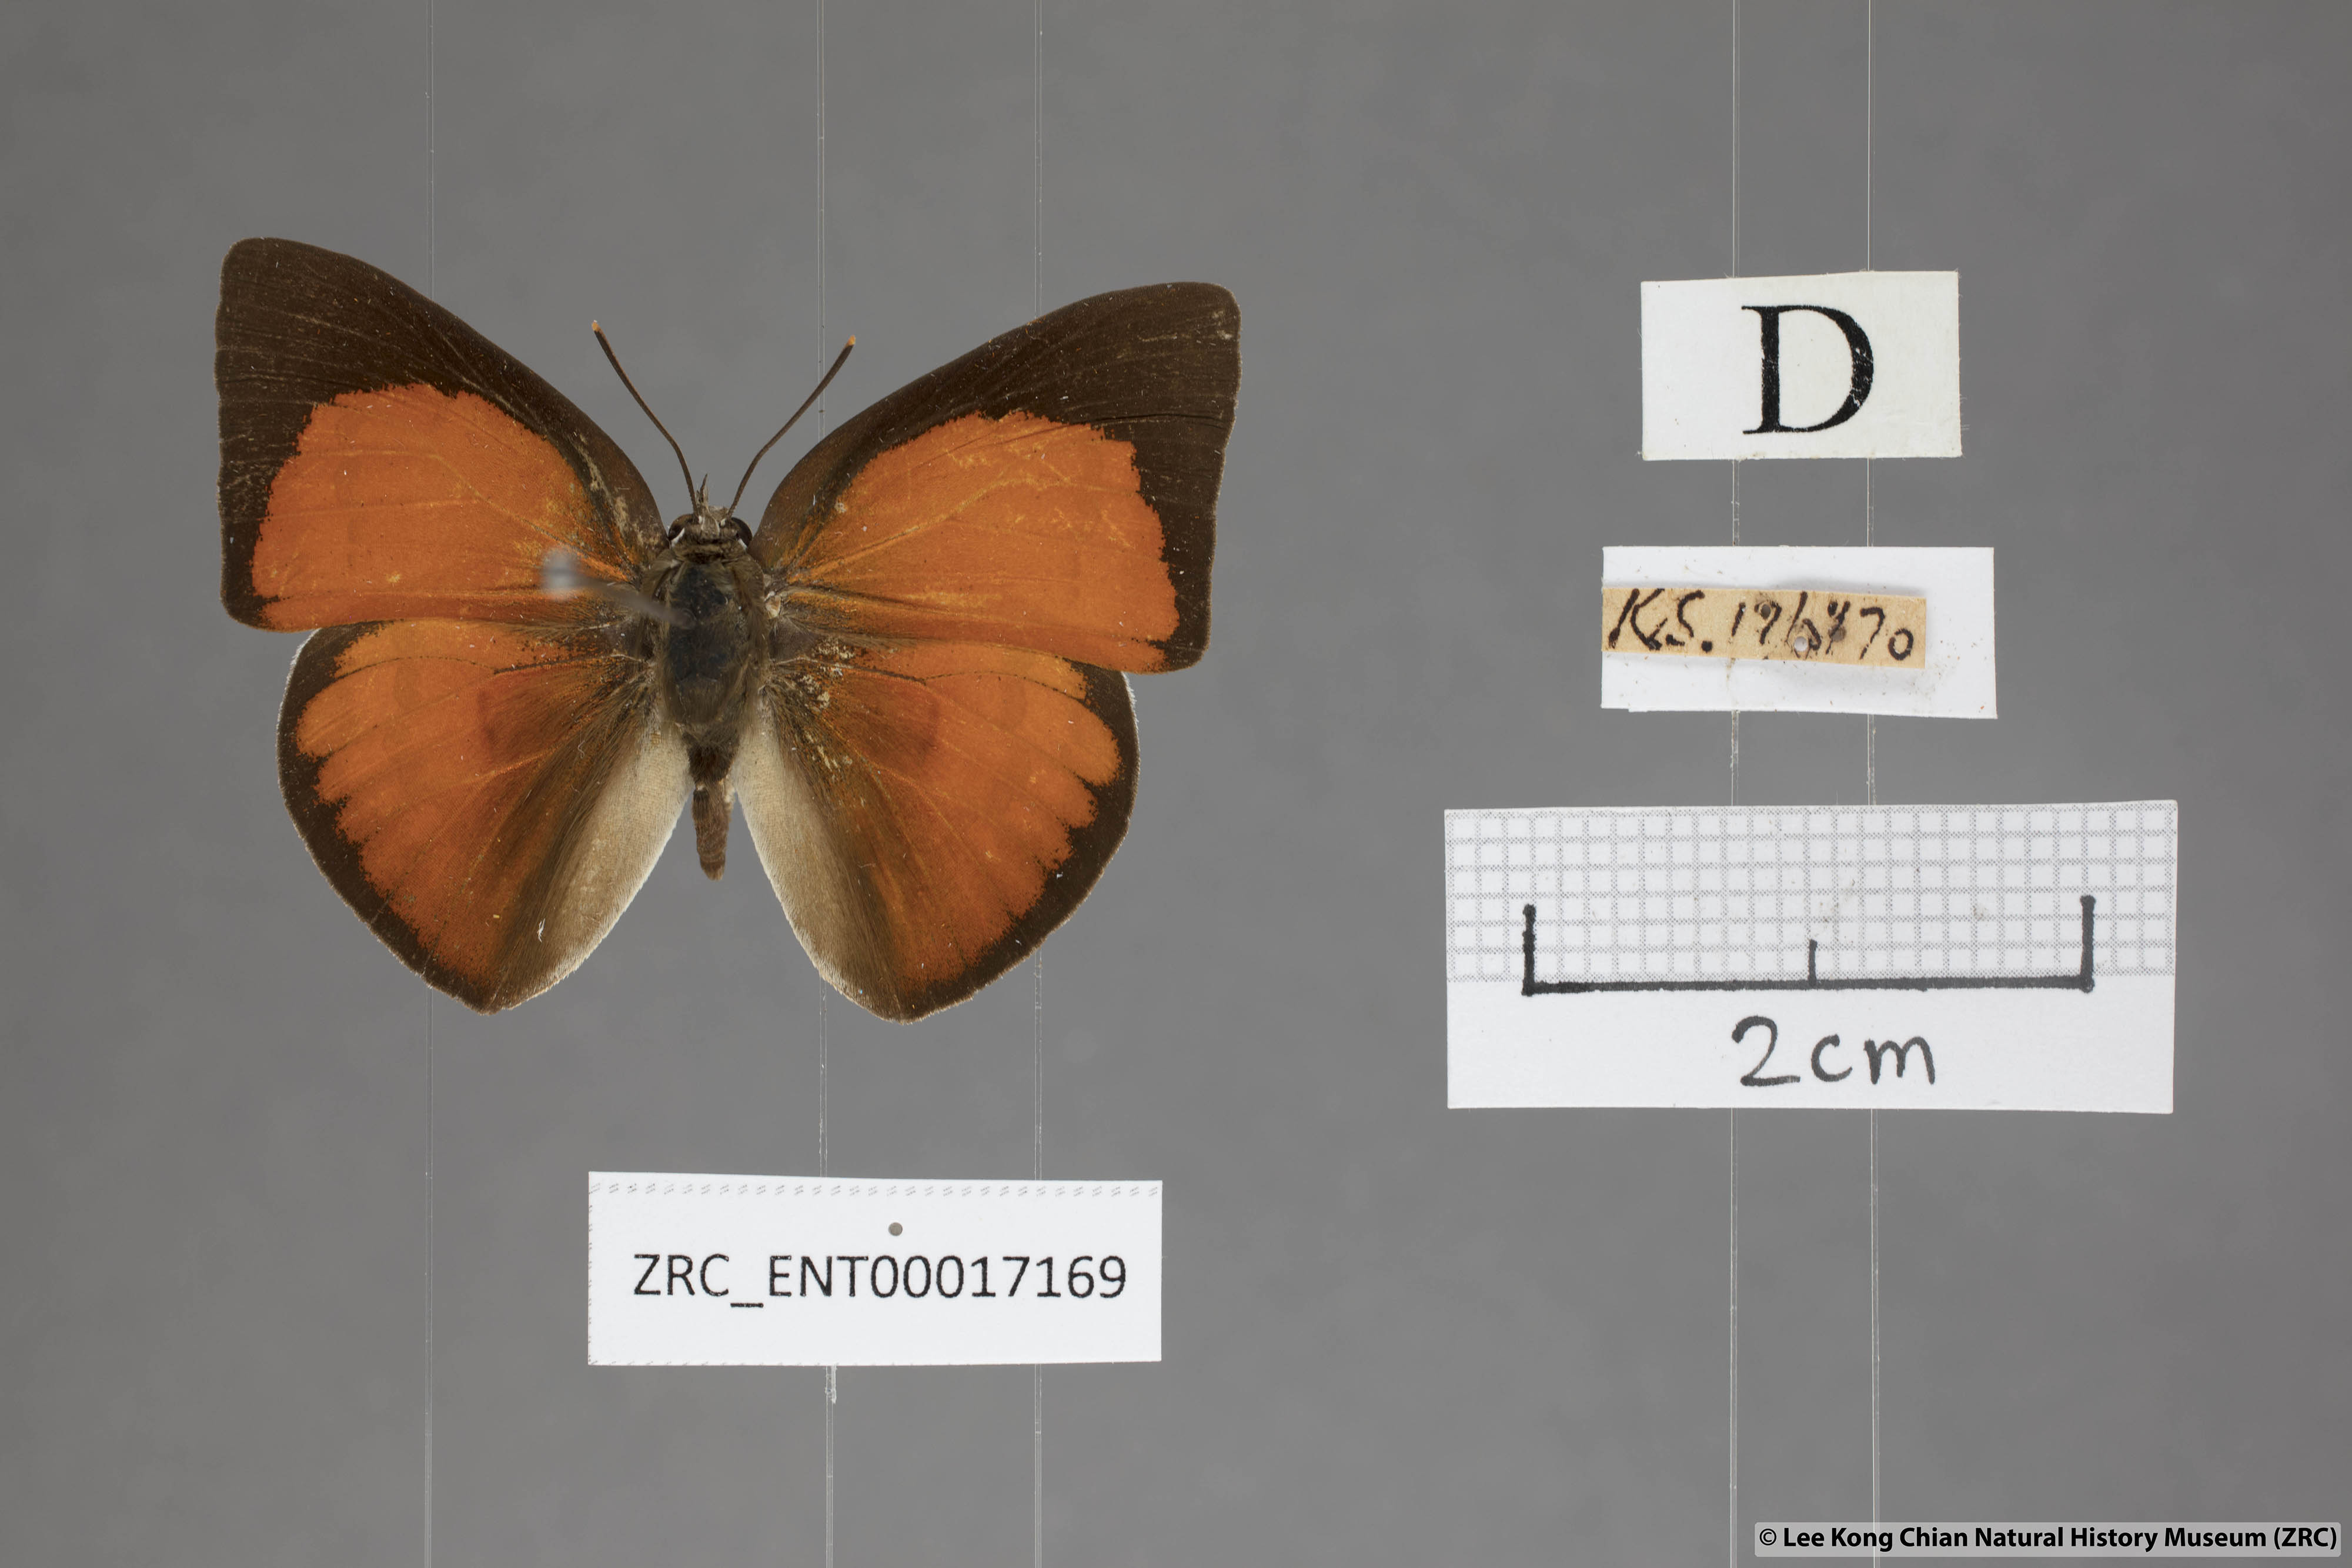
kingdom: Animalia
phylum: Arthropoda
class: Insecta
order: Lepidoptera
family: Lycaenidae
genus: Curetis
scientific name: Curetis tagalica
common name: Southern sunbeam
